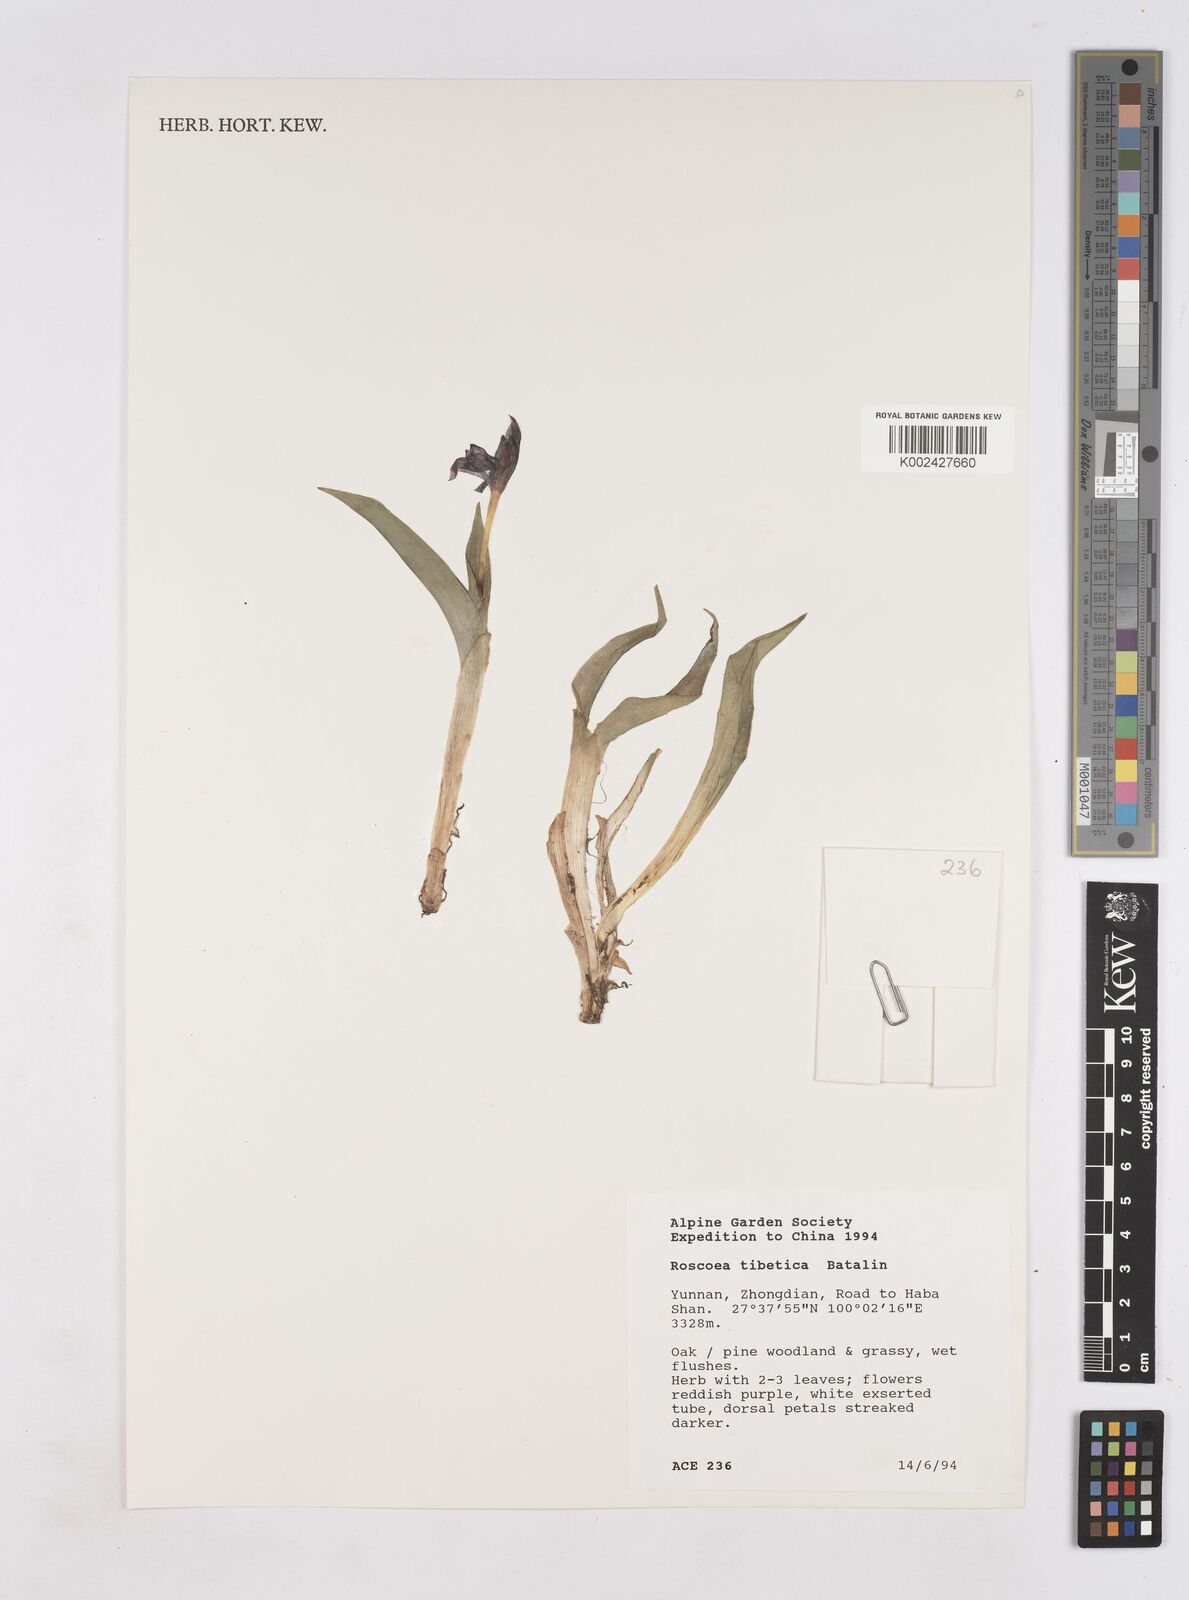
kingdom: Plantae
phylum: Tracheophyta
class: Liliopsida
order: Zingiberales
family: Zingiberaceae
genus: Roscoea
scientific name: Roscoea tibetica
